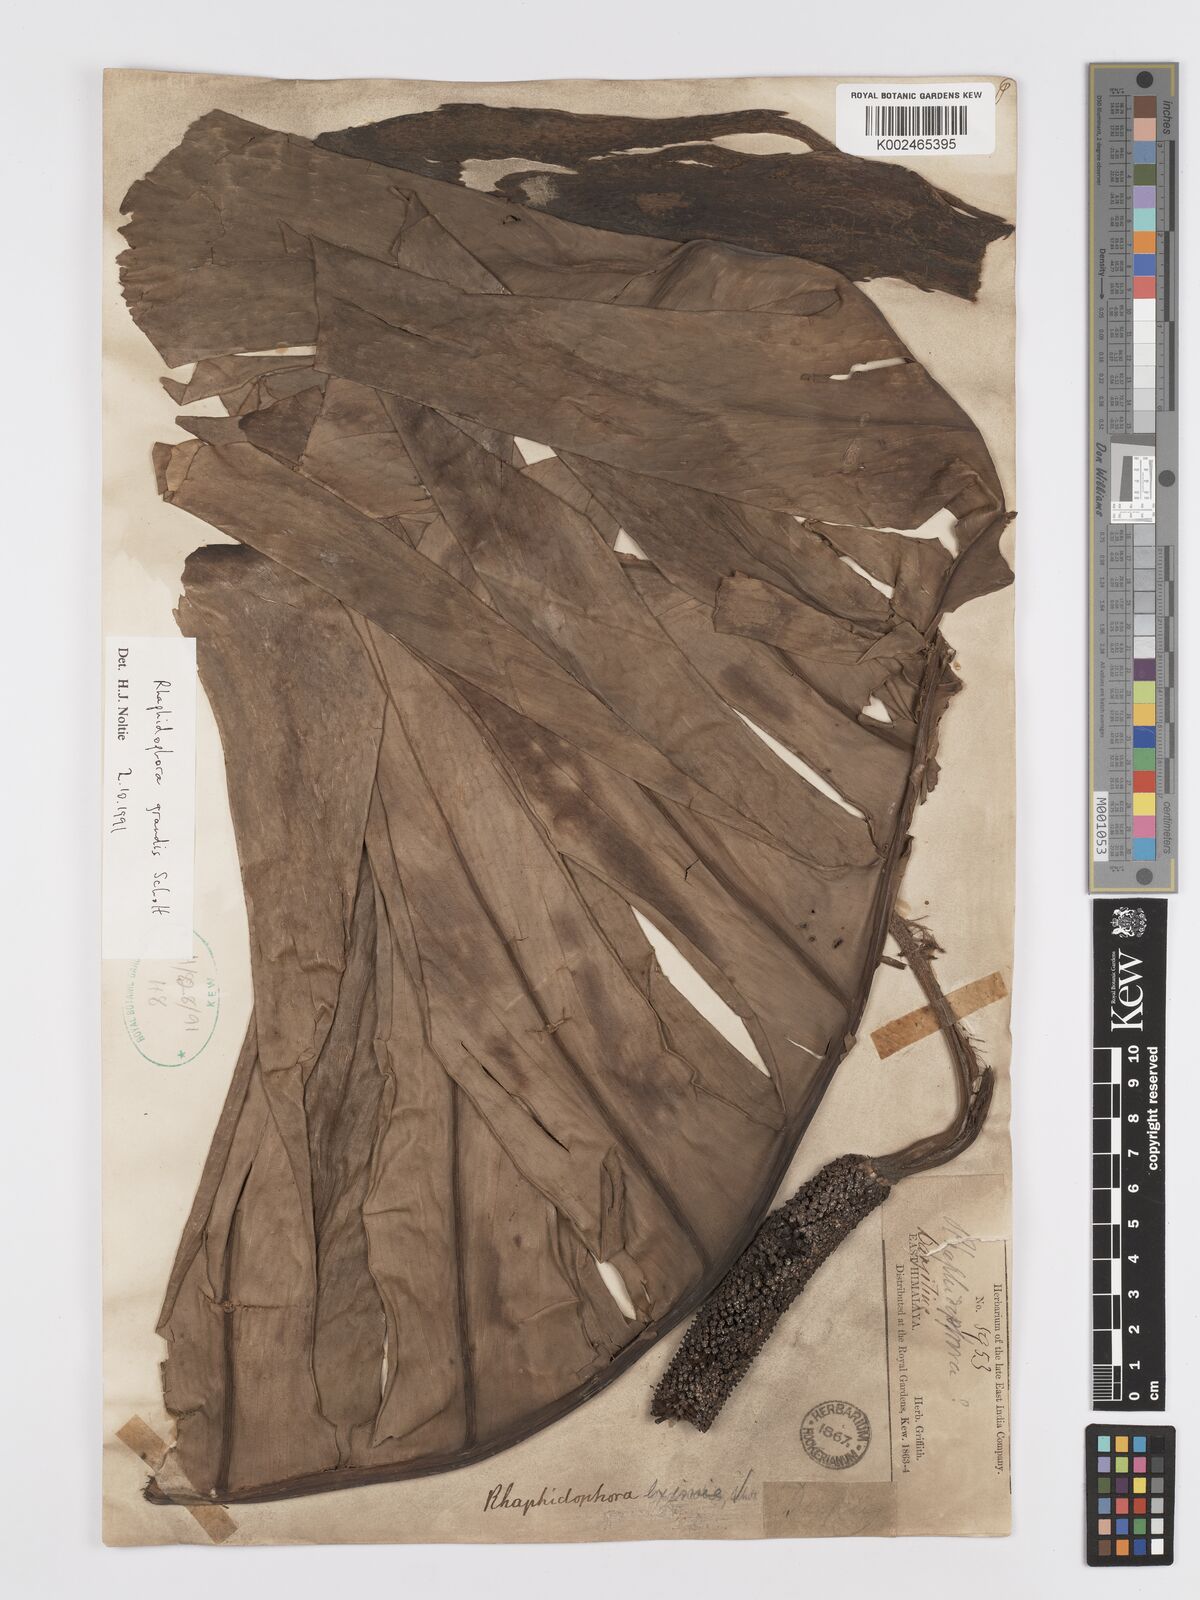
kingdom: Plantae
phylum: Tracheophyta
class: Liliopsida
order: Alismatales
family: Araceae
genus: Rhaphidophora
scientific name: Rhaphidophora decursiva
